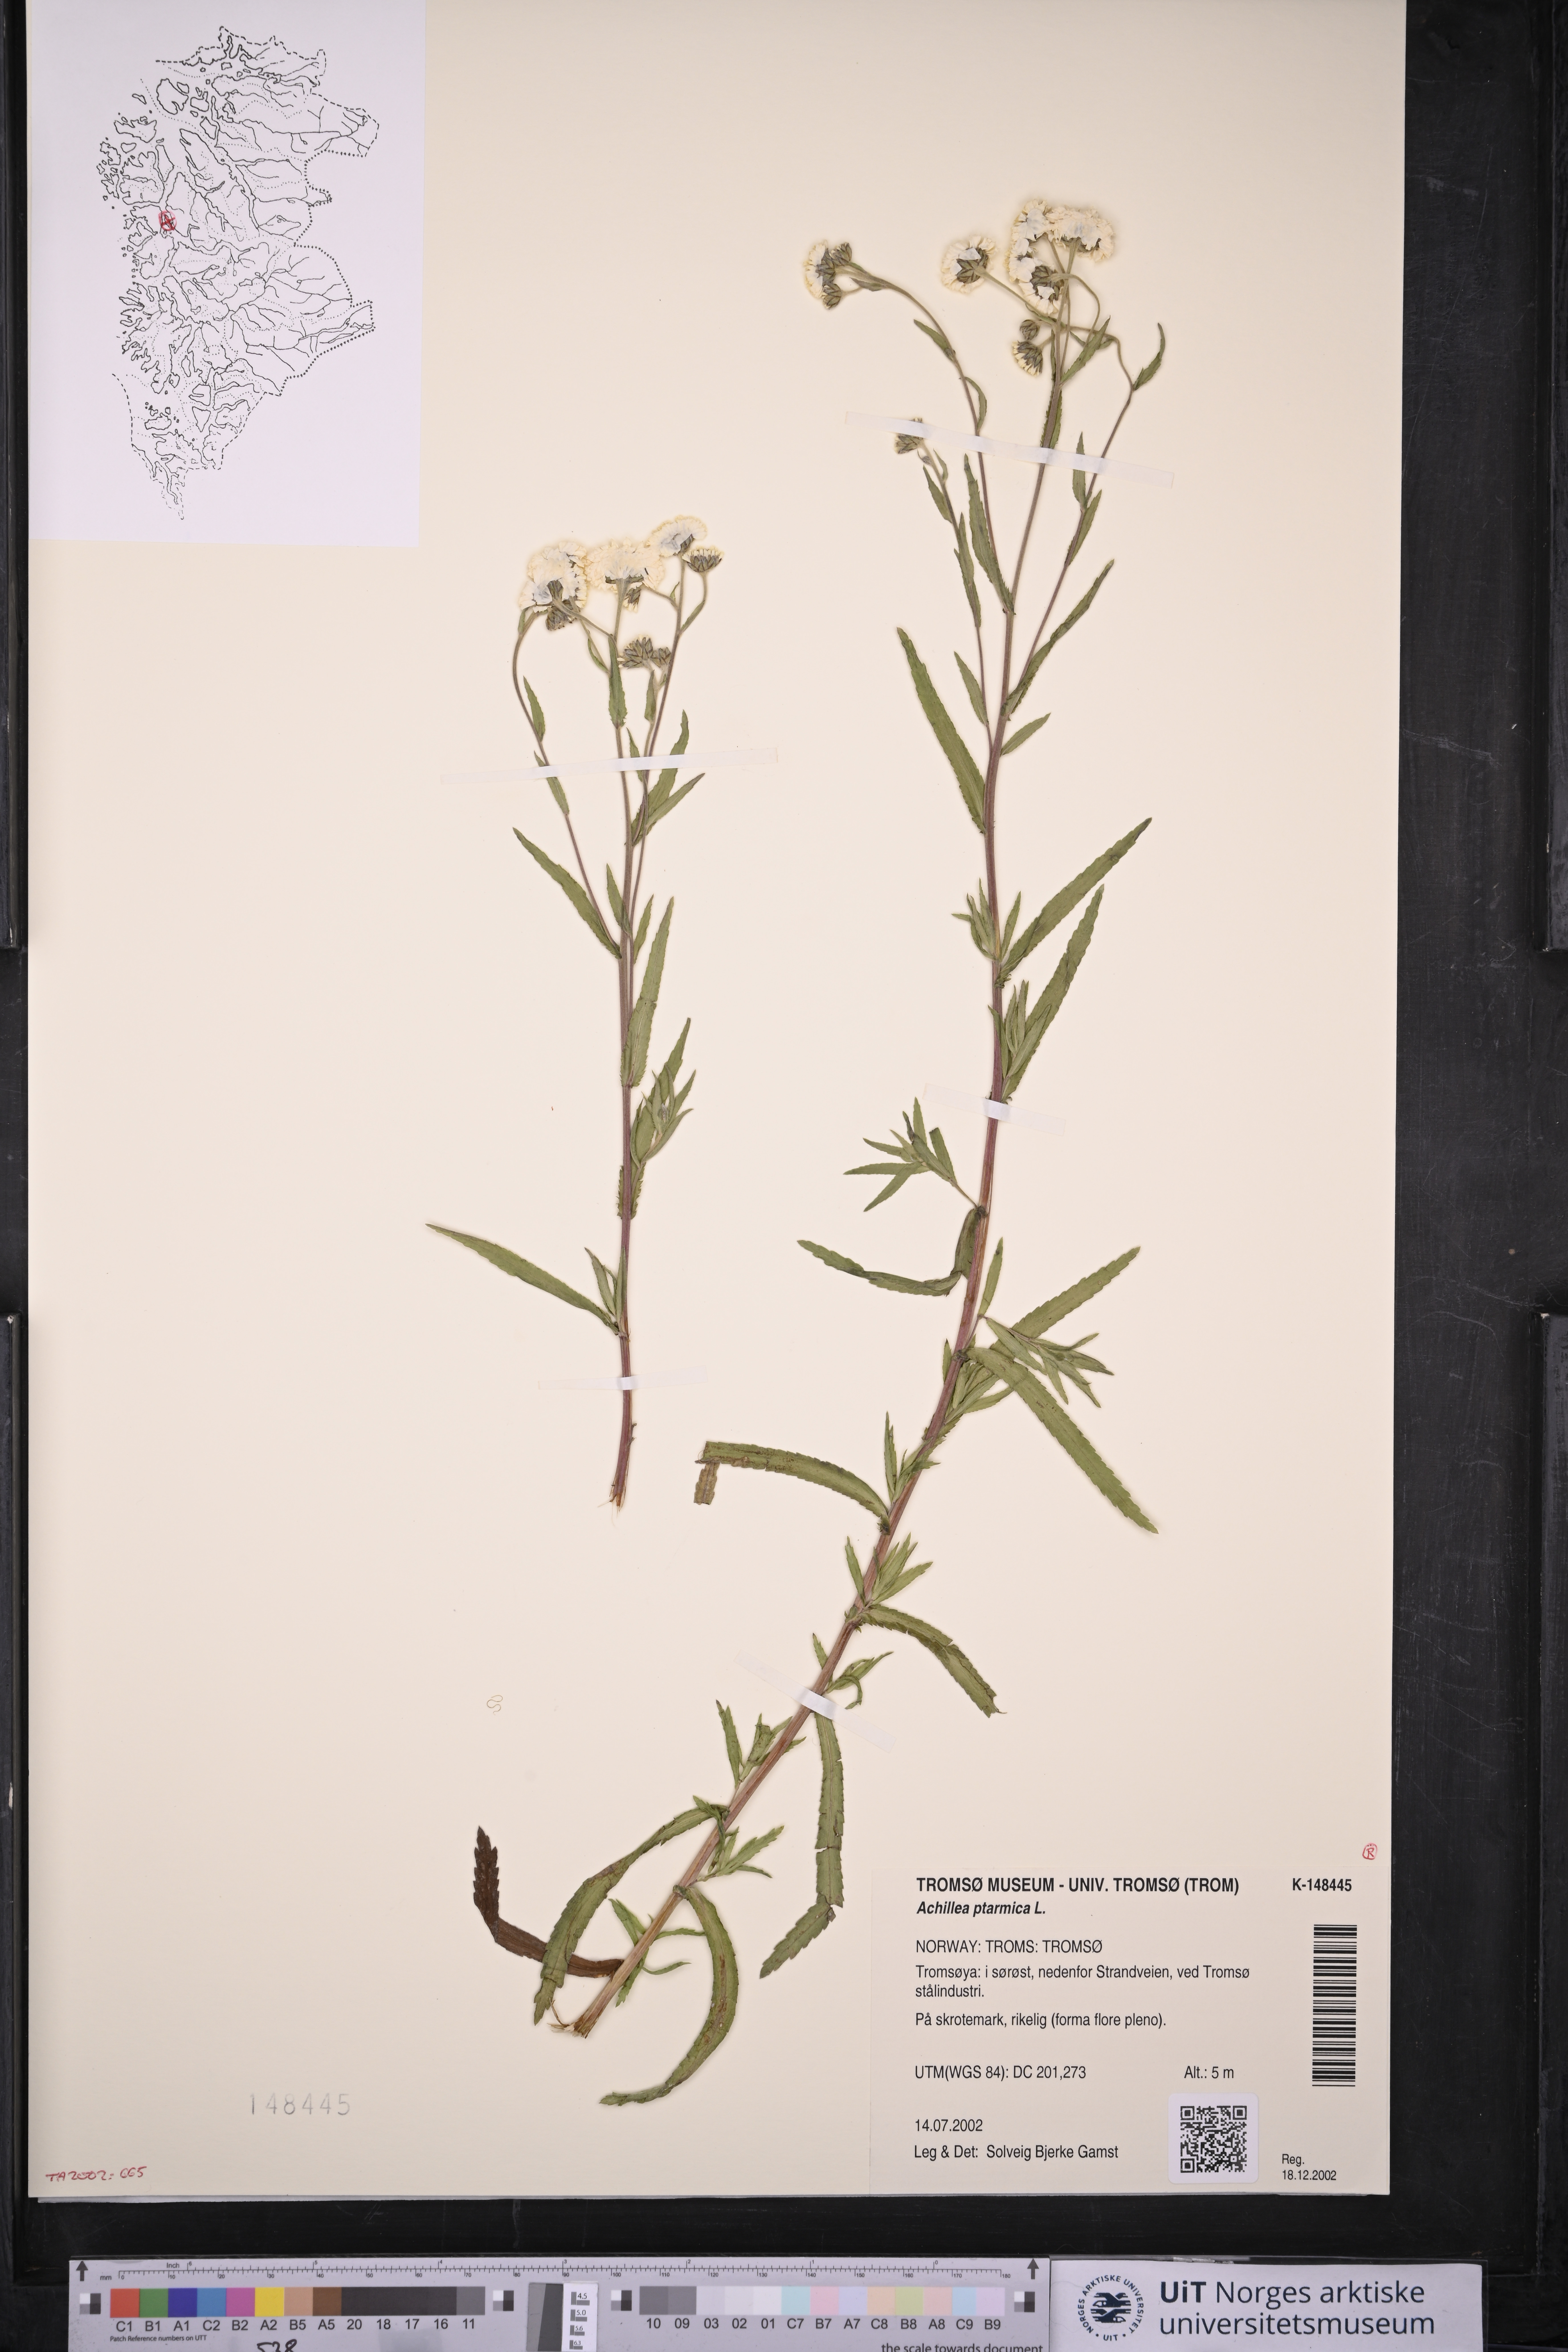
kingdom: Plantae
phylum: Tracheophyta
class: Magnoliopsida
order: Asterales
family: Asteraceae
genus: Achillea
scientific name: Achillea ptarmica
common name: Sneezeweed
